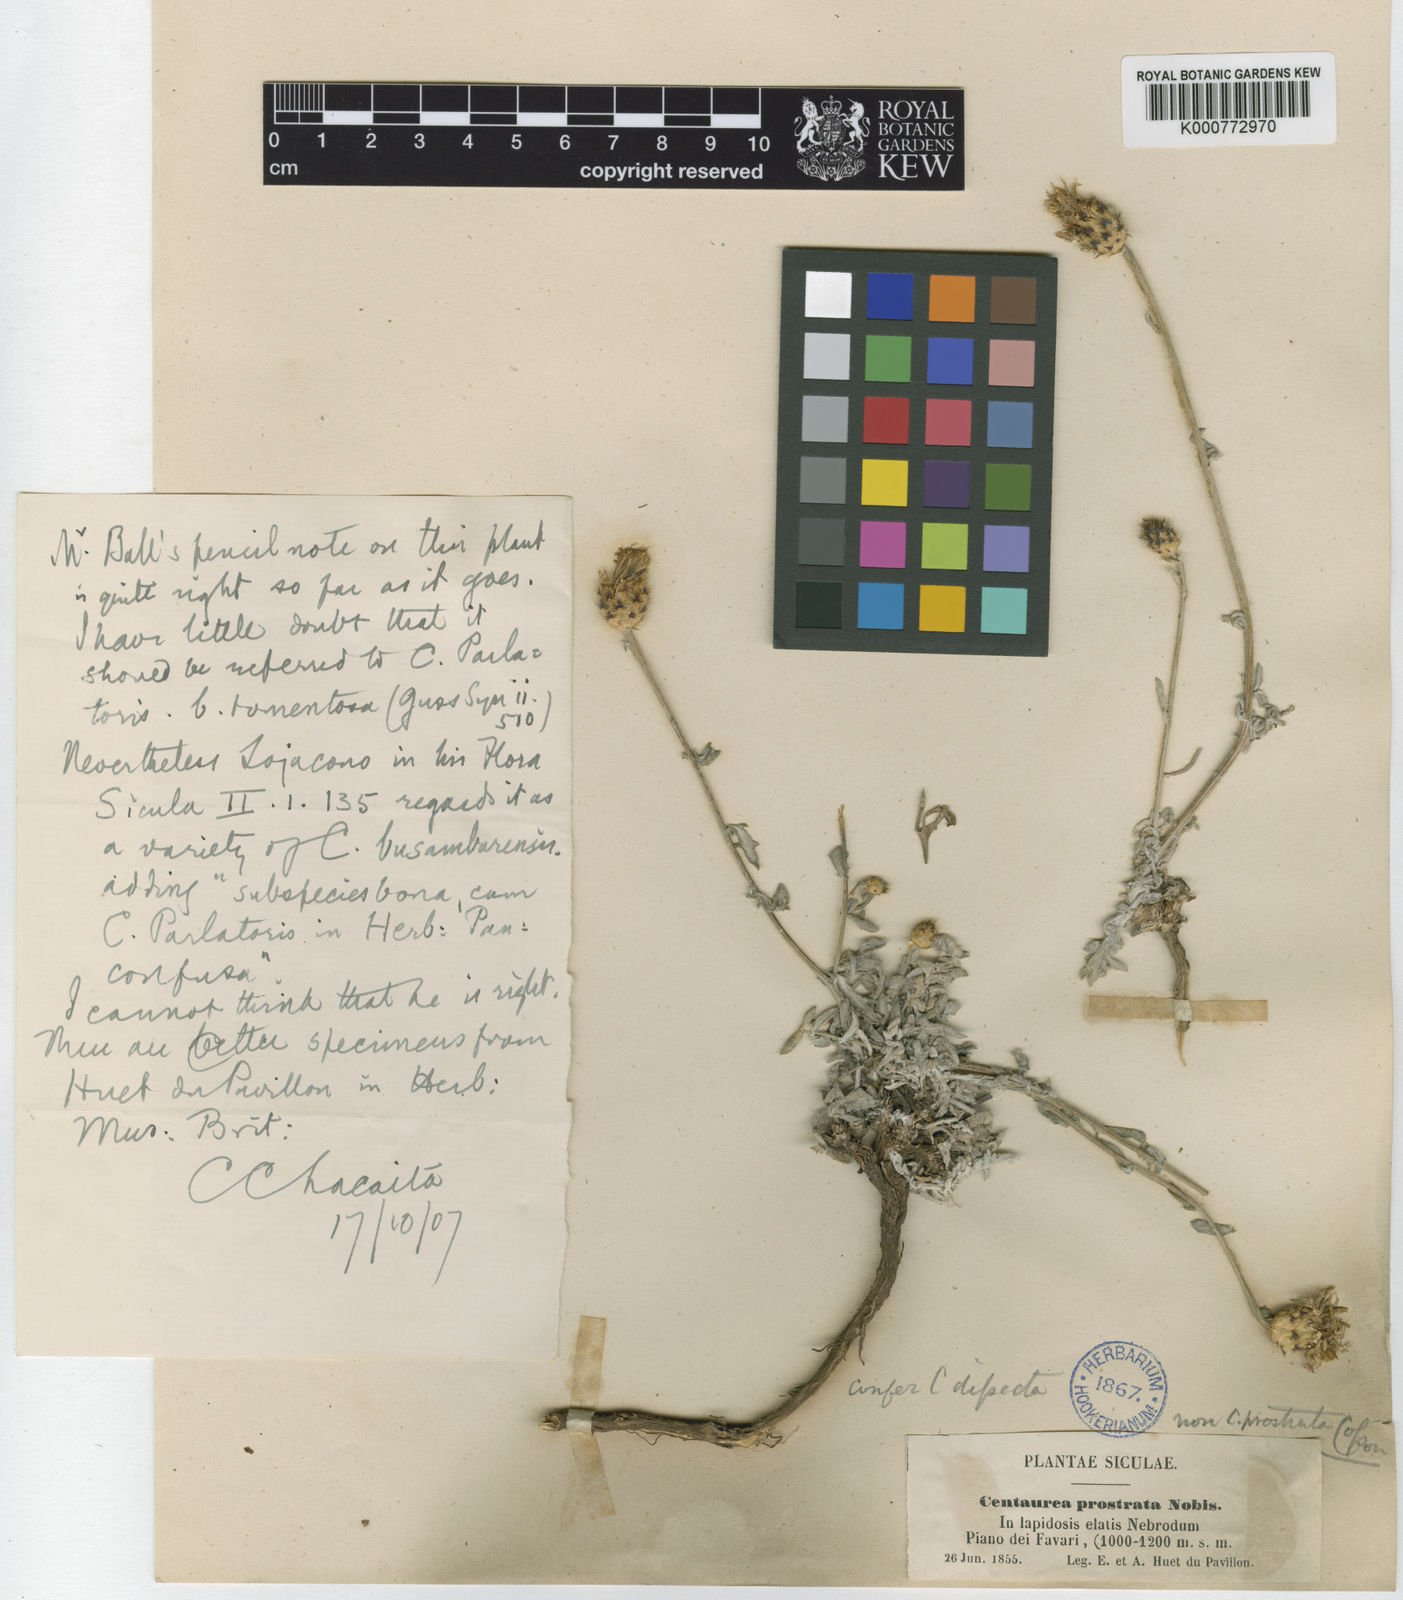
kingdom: Plantae
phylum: Tracheophyta
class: Magnoliopsida
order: Asterales
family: Asteraceae
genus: Centaurea
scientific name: Centaurea parlatoris
